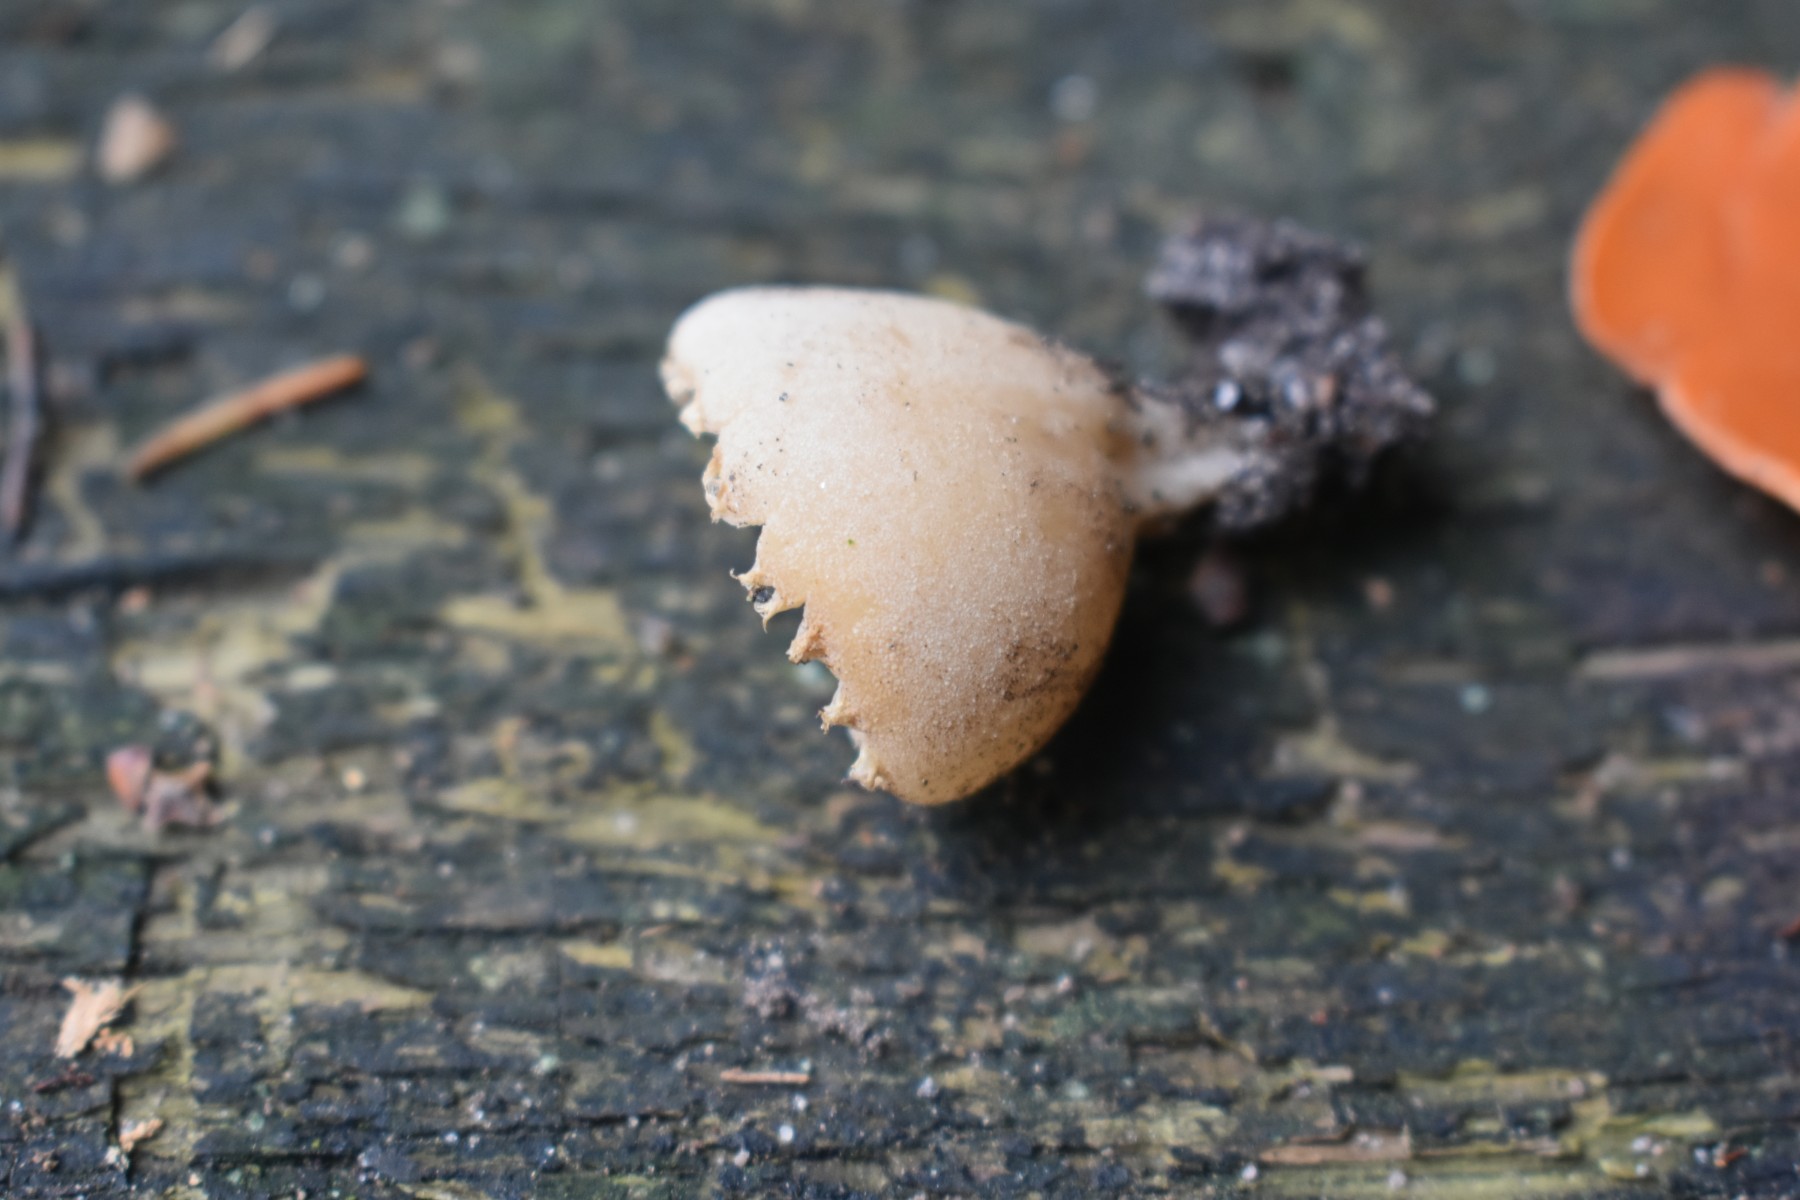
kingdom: Fungi
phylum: Ascomycota
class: Pezizomycetes
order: Pezizales
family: Pyronemataceae
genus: Tarzetta
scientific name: Tarzetta cupularis
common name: gulbrun pokalbæger
